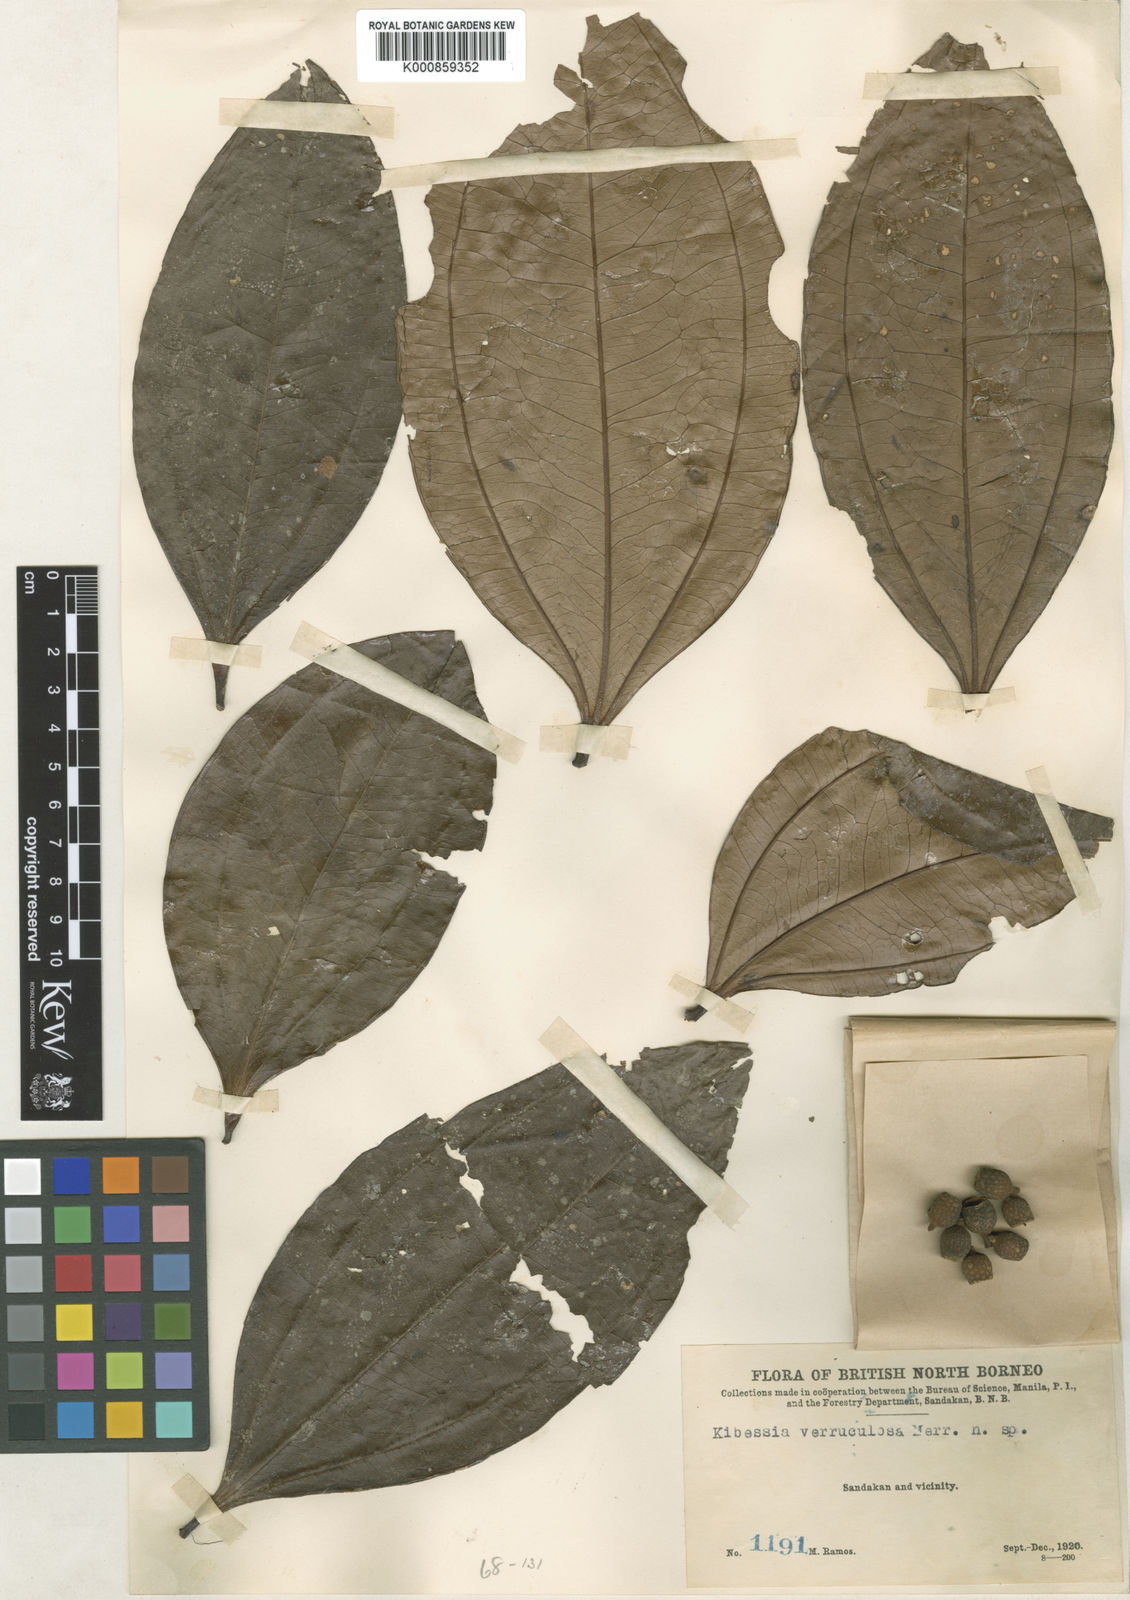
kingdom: Plantae
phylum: Tracheophyta
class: Magnoliopsida
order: Myrtales
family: Melastomataceae
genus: Pternandra
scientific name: Pternandra rostrata
